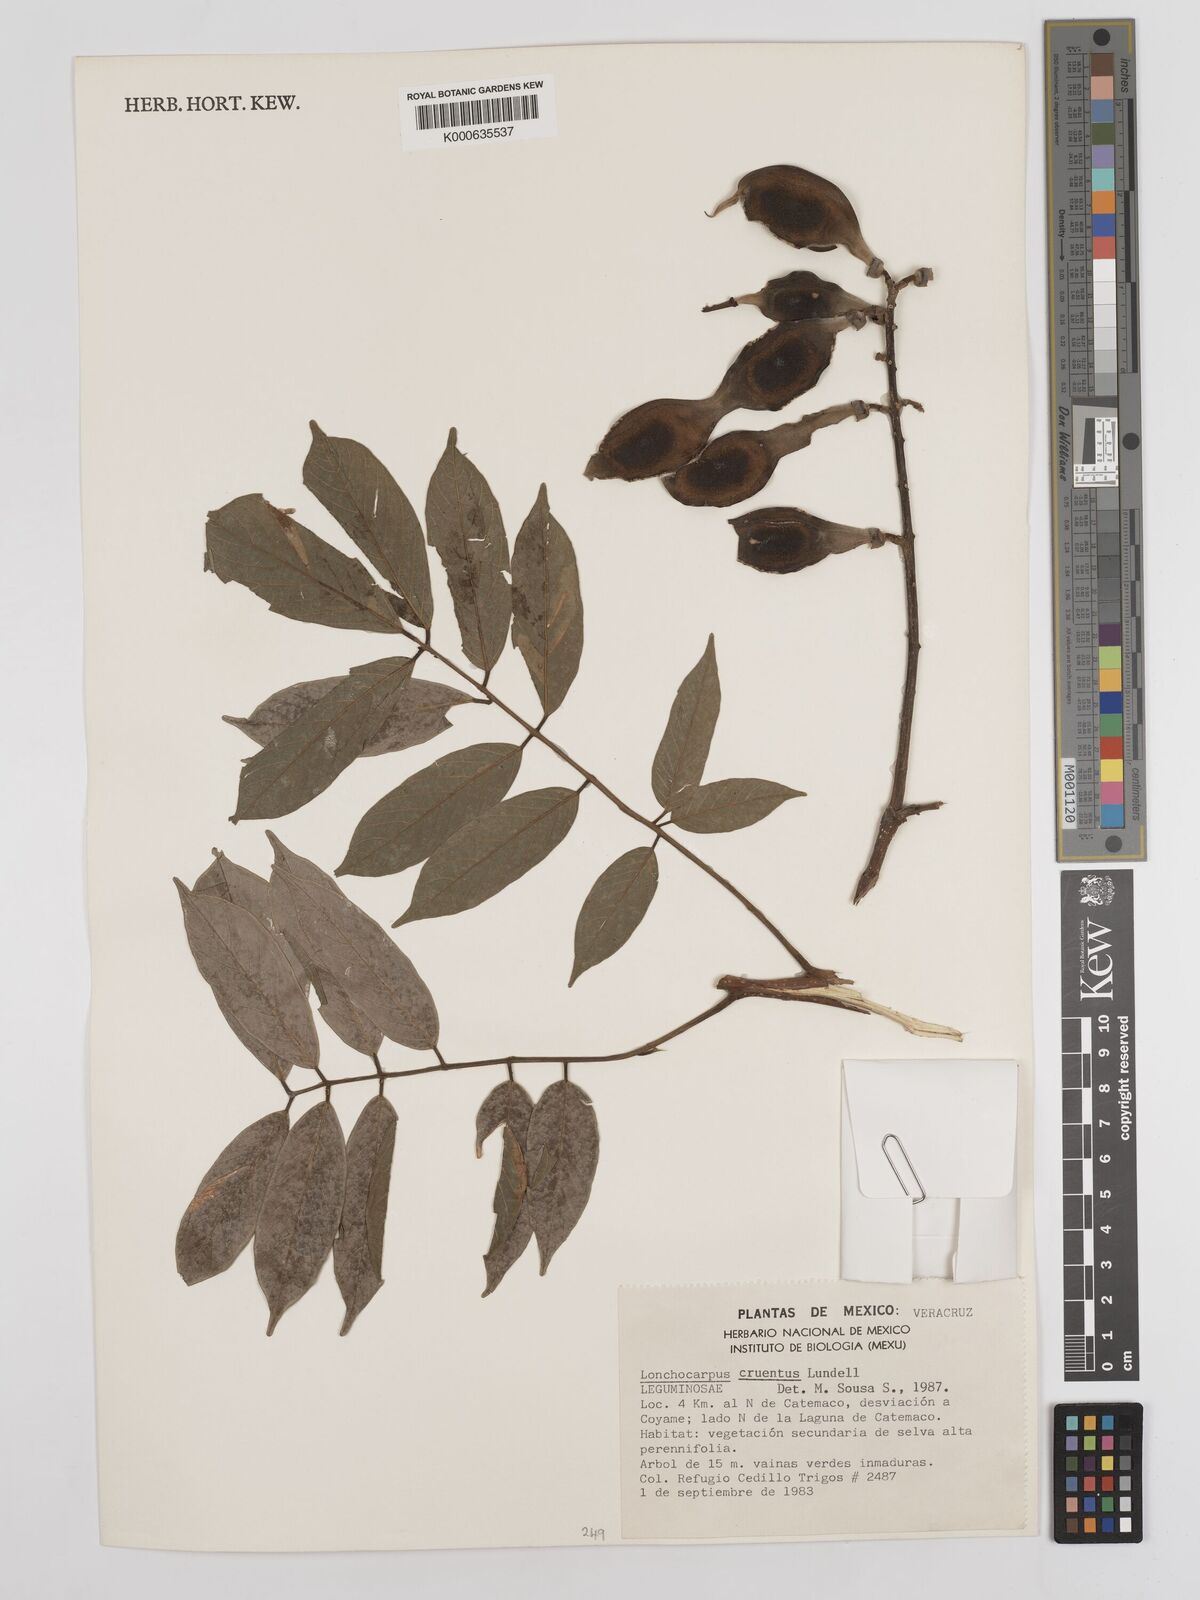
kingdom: Plantae
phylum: Tracheophyta
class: Magnoliopsida
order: Fabales
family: Fabaceae
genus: Lonchocarpus
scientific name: Lonchocarpus cruentus
